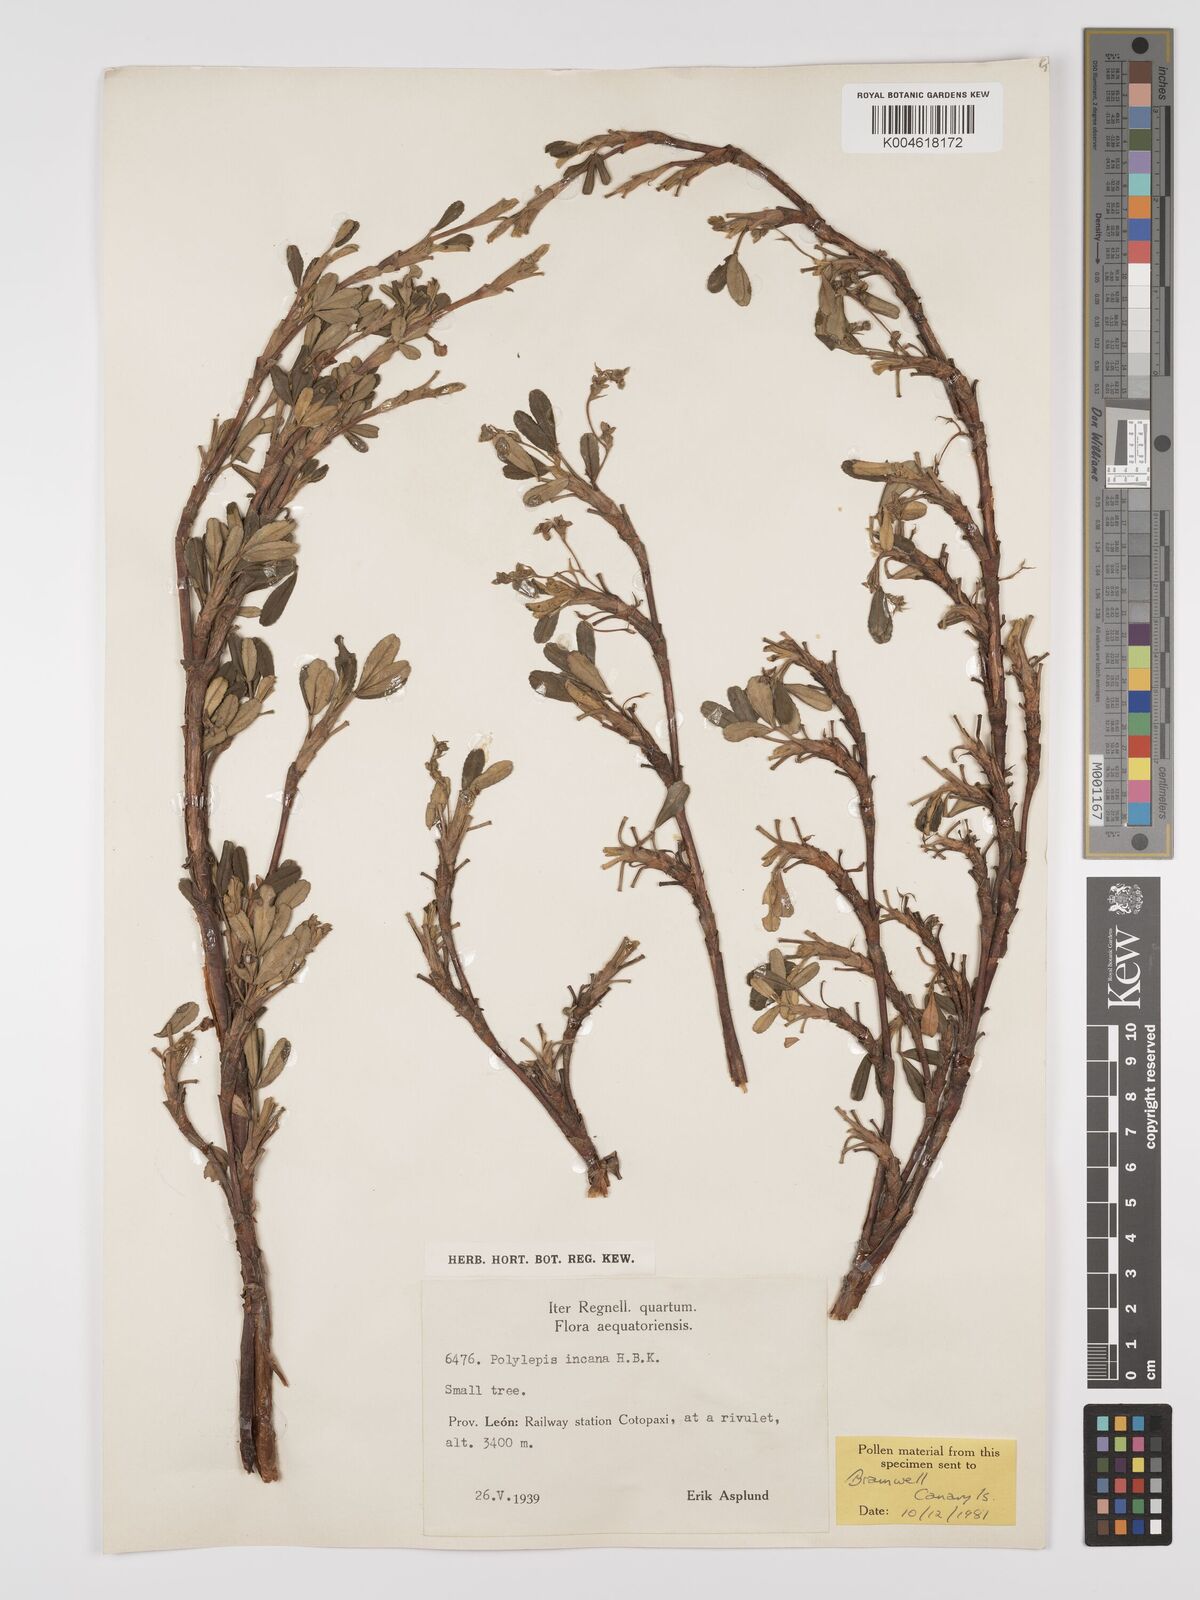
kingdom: Plantae
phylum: Tracheophyta
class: Magnoliopsida
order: Rosales
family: Rosaceae
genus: Polylepis
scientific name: Polylepis incana
